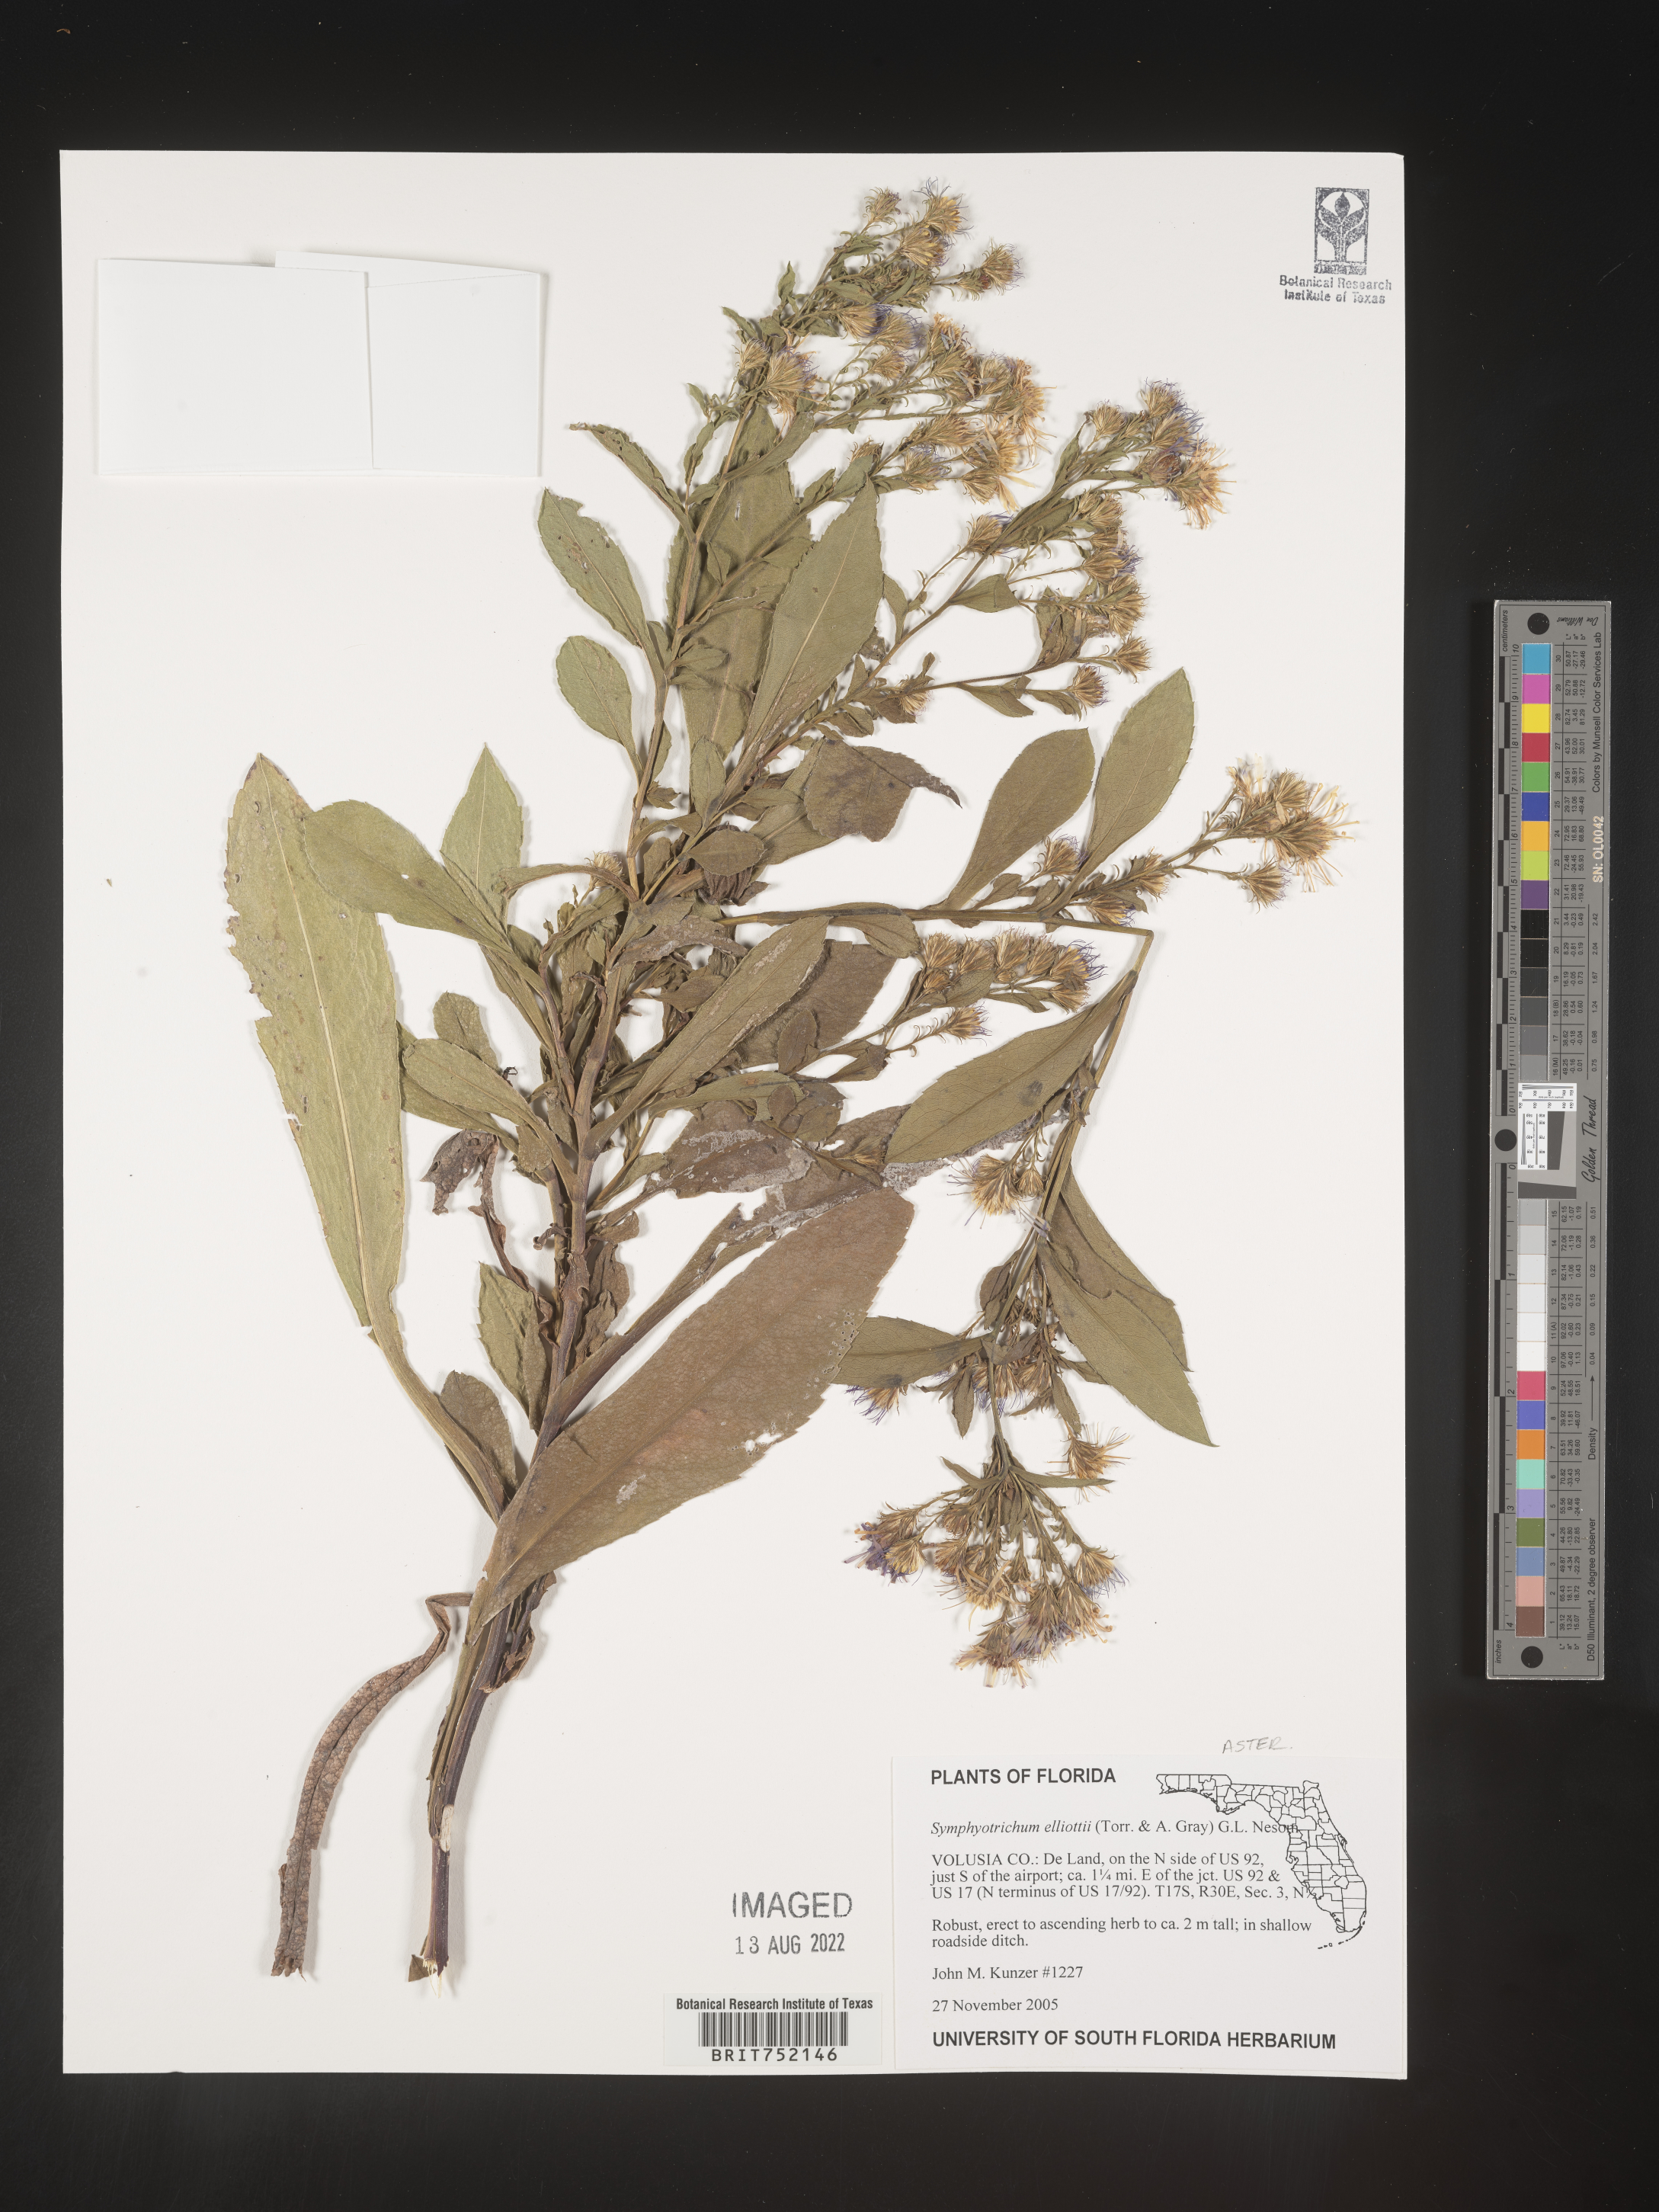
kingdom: Plantae
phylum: Tracheophyta
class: Magnoliopsida
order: Asterales
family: Asteraceae
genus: Symphyotrichum
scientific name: Symphyotrichum elliottii
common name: Southern swamp aster
